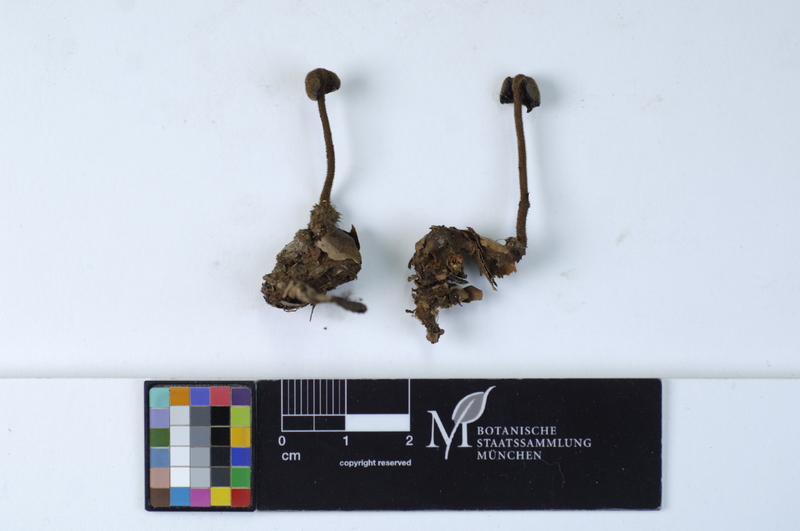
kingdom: Plantae
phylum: Tracheophyta
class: Pinopsida
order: Pinales
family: Pinaceae
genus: Pinus
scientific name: Pinus
